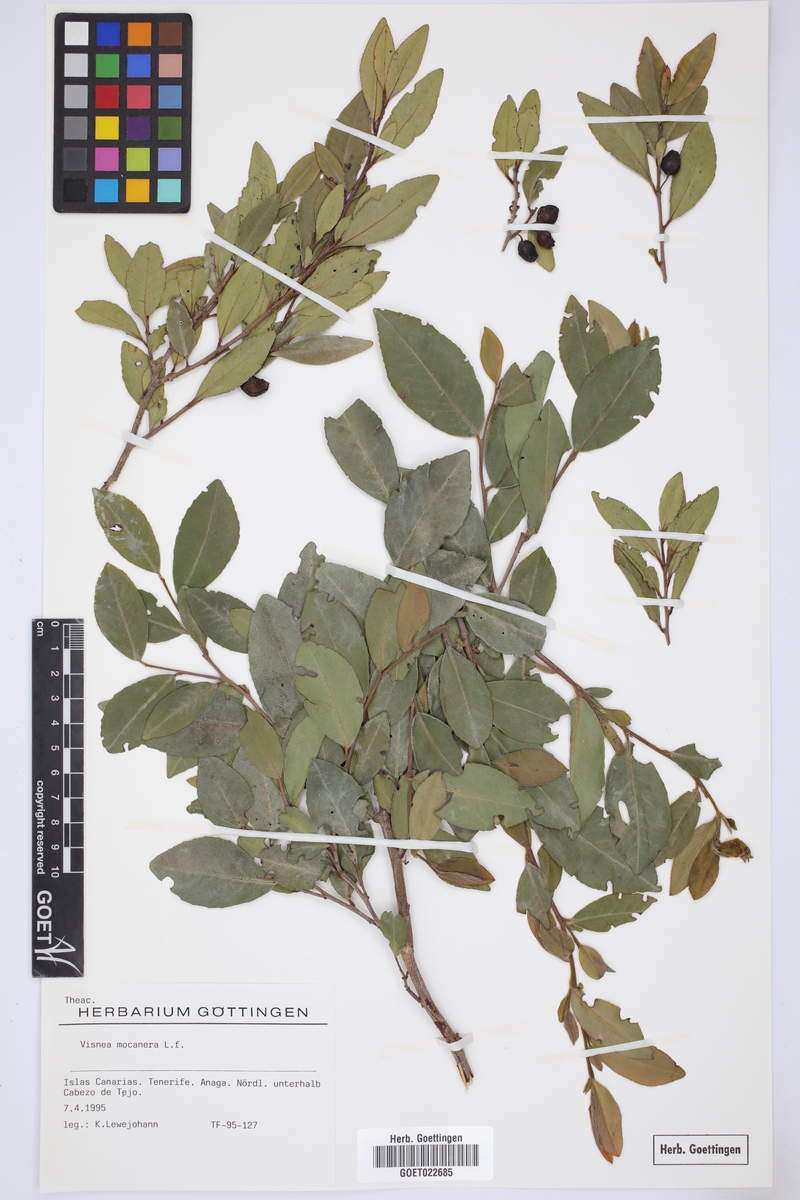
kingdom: Plantae
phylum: Tracheophyta
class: Magnoliopsida
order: Ericales
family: Pentaphylacaceae
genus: Visnea
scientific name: Visnea mocanera
